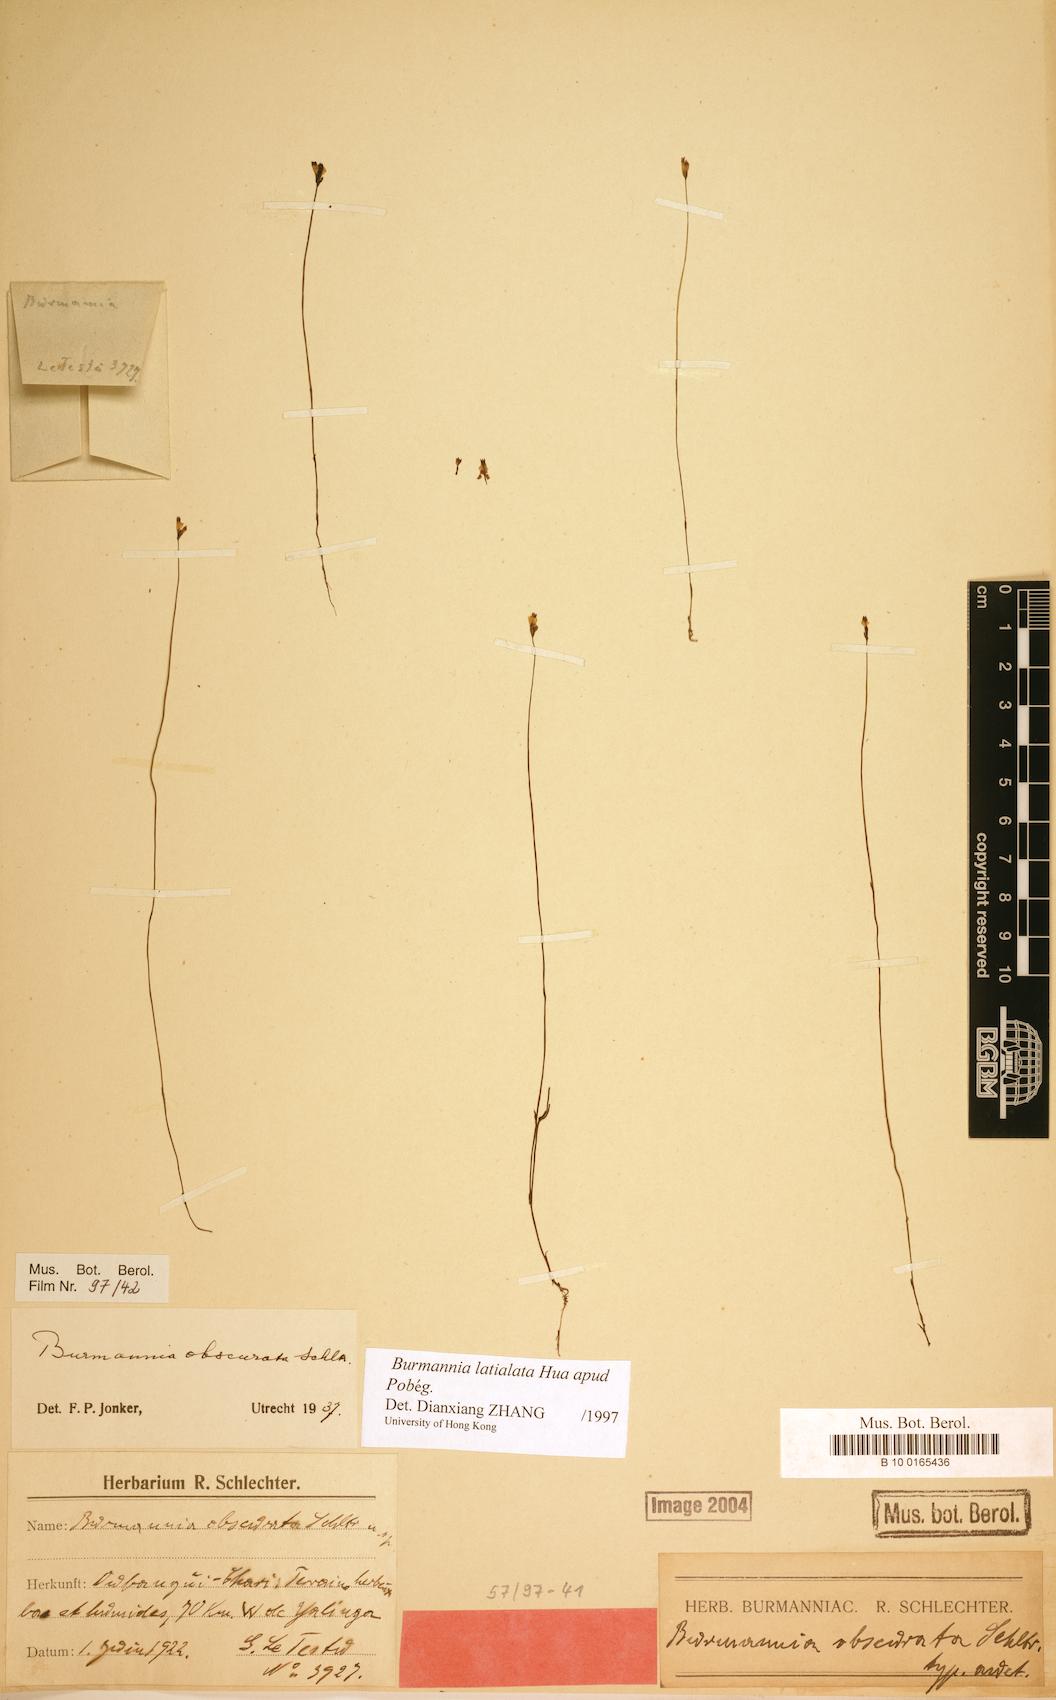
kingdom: Plantae
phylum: Tracheophyta
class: Liliopsida
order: Dioscoreales
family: Burmanniaceae
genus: Burmannia
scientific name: Burmannia latialata
